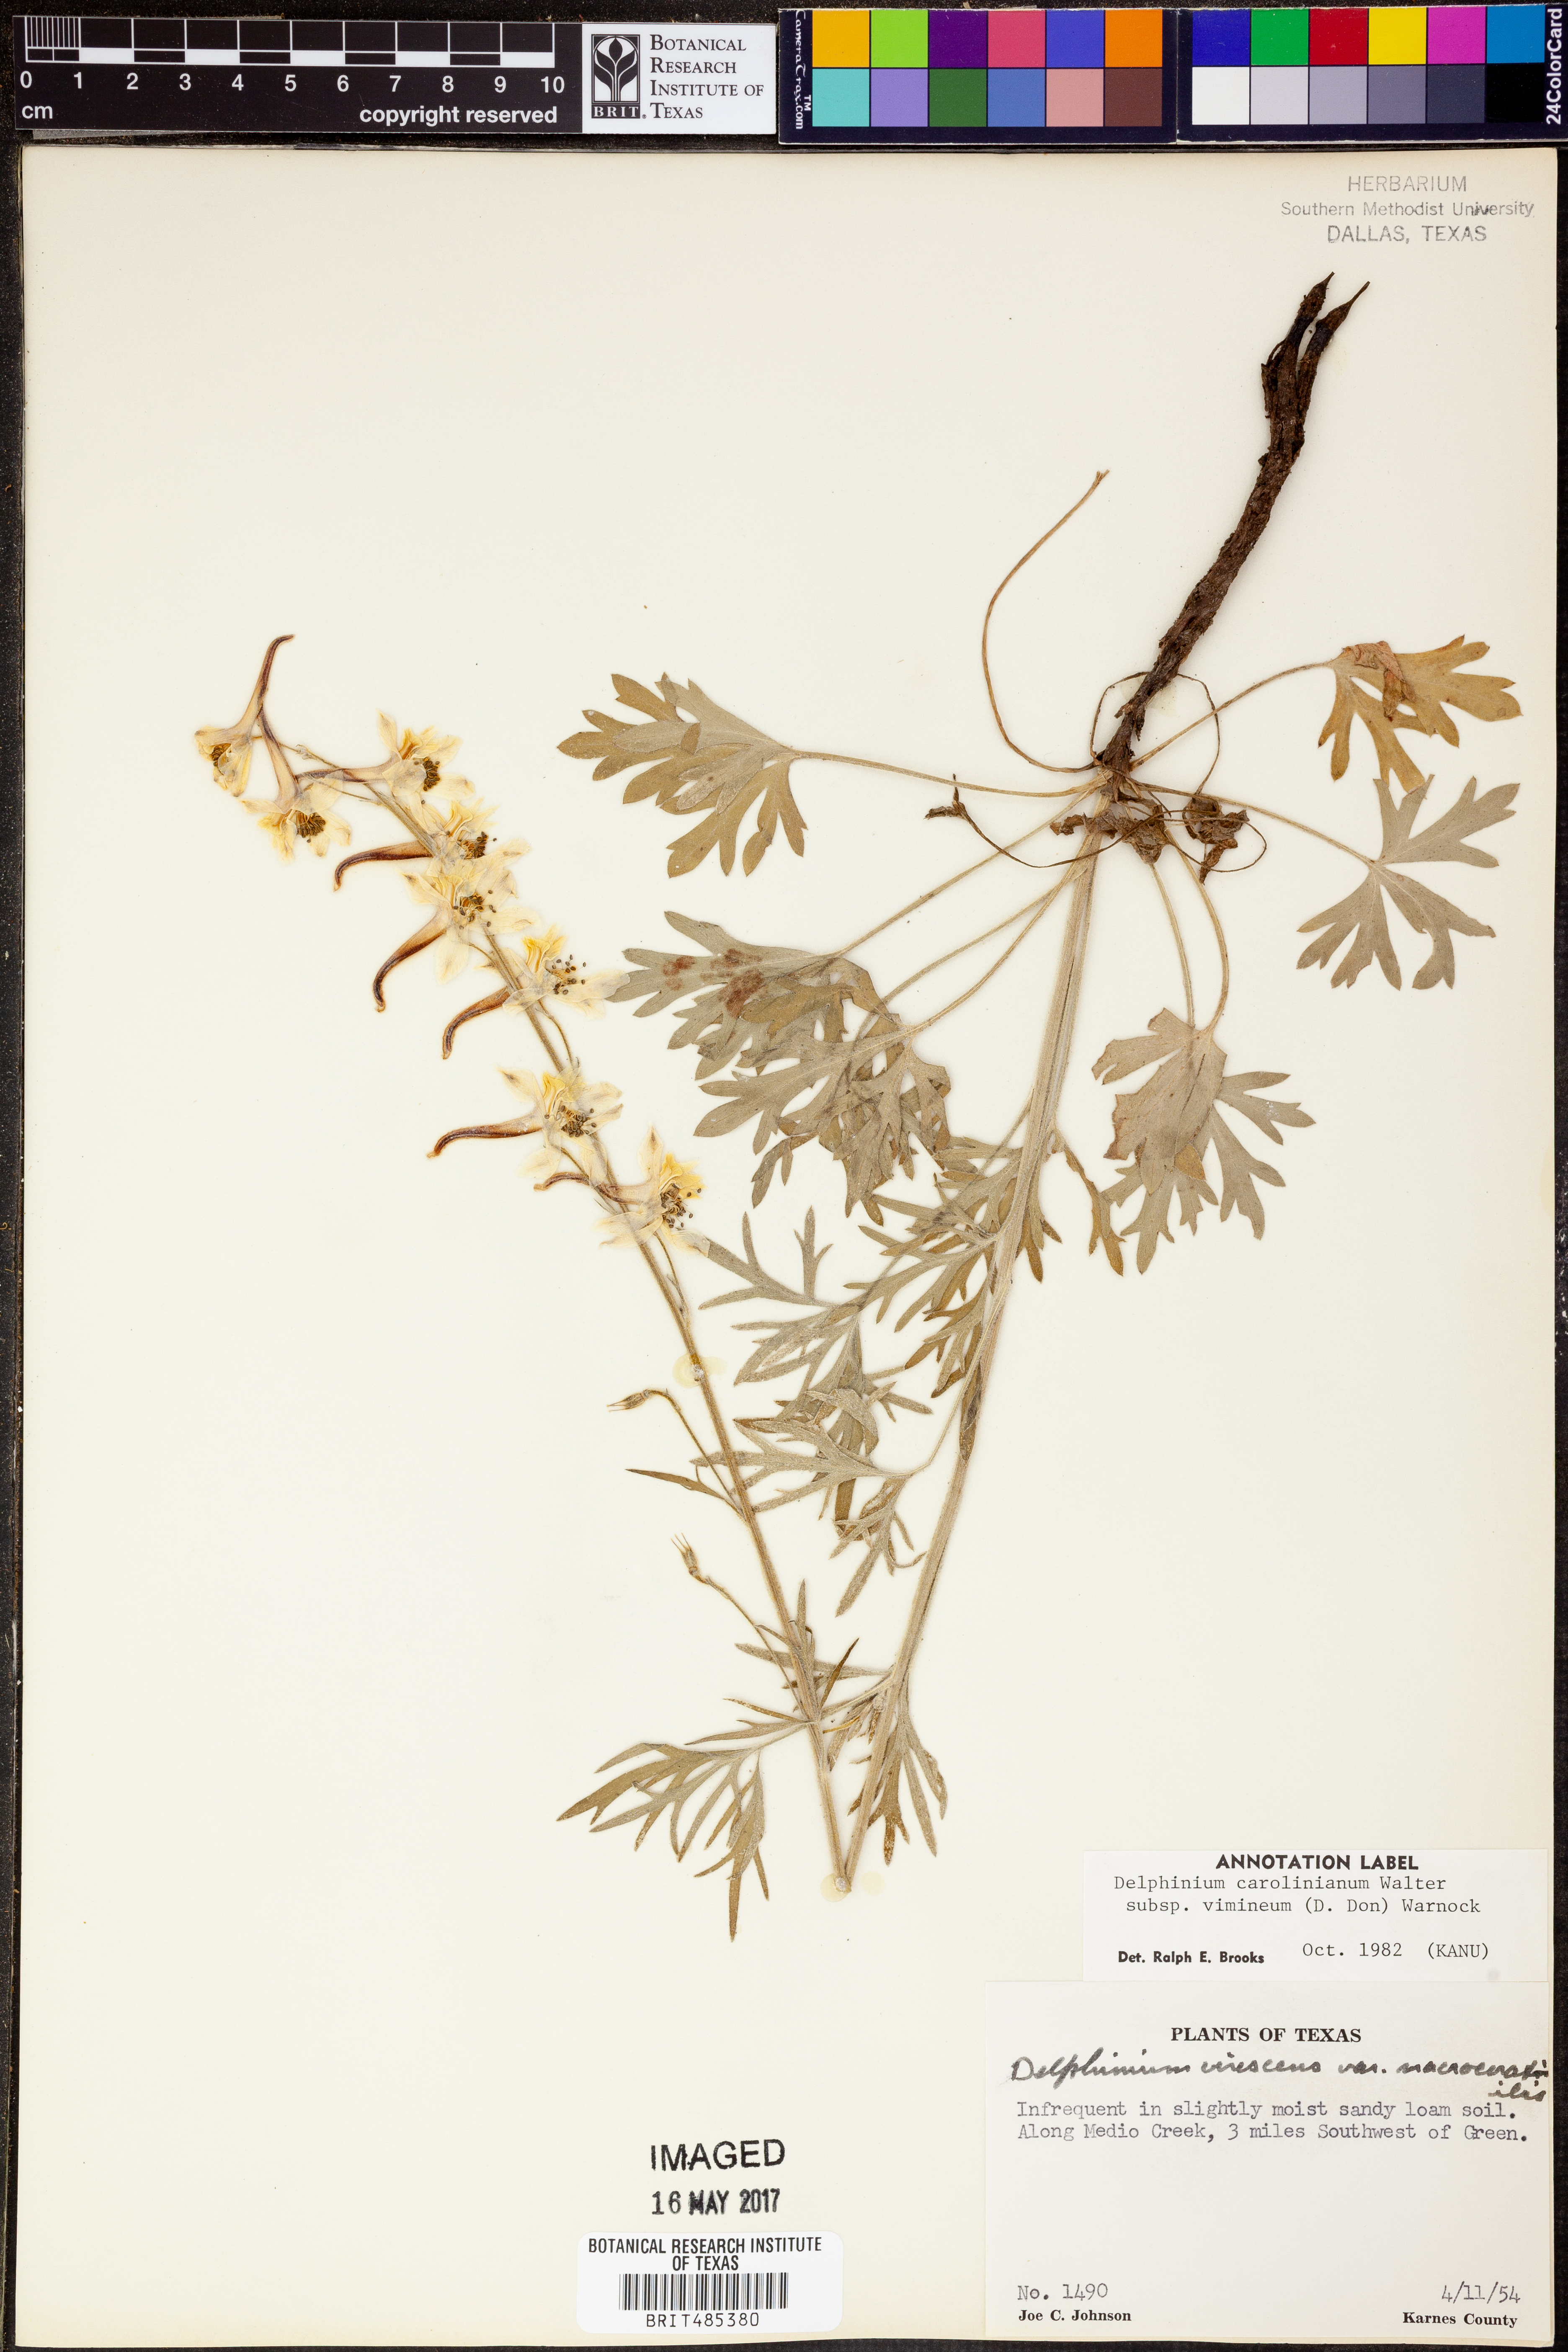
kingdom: Plantae
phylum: Tracheophyta
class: Magnoliopsida
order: Ranunculales
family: Ranunculaceae
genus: Delphinium
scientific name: Delphinium carolinianum
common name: Carolina larkspur
